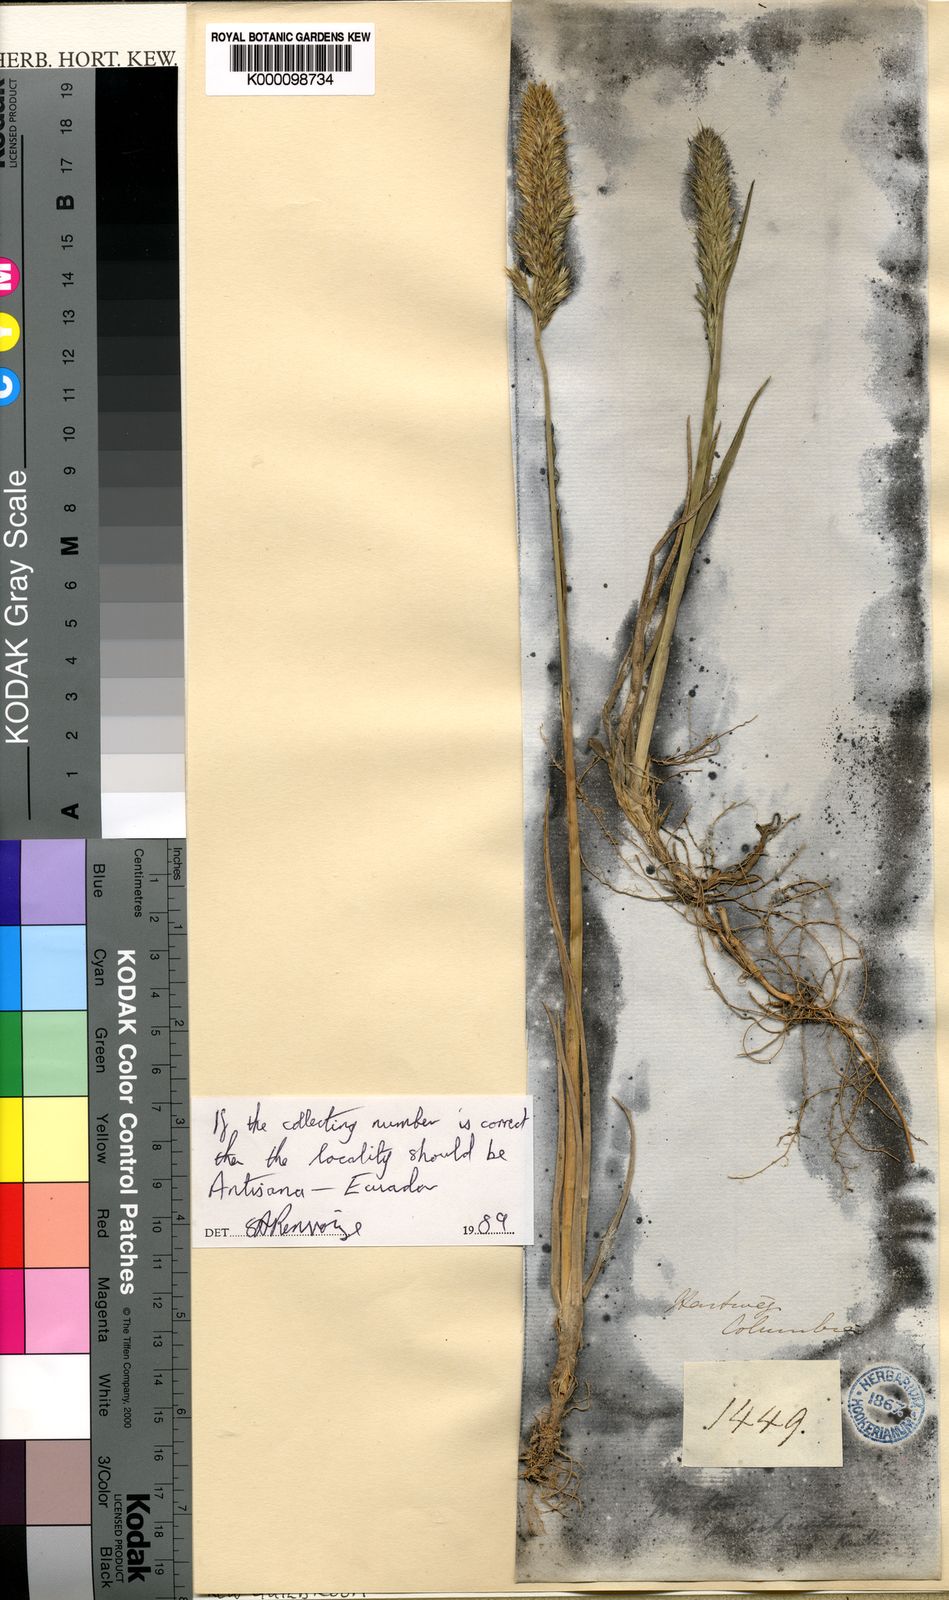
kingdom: Plantae
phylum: Tracheophyta
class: Liliopsida
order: Poales
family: Poaceae
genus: Koeleria
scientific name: Koeleria spicata
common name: Mountain trisetum
